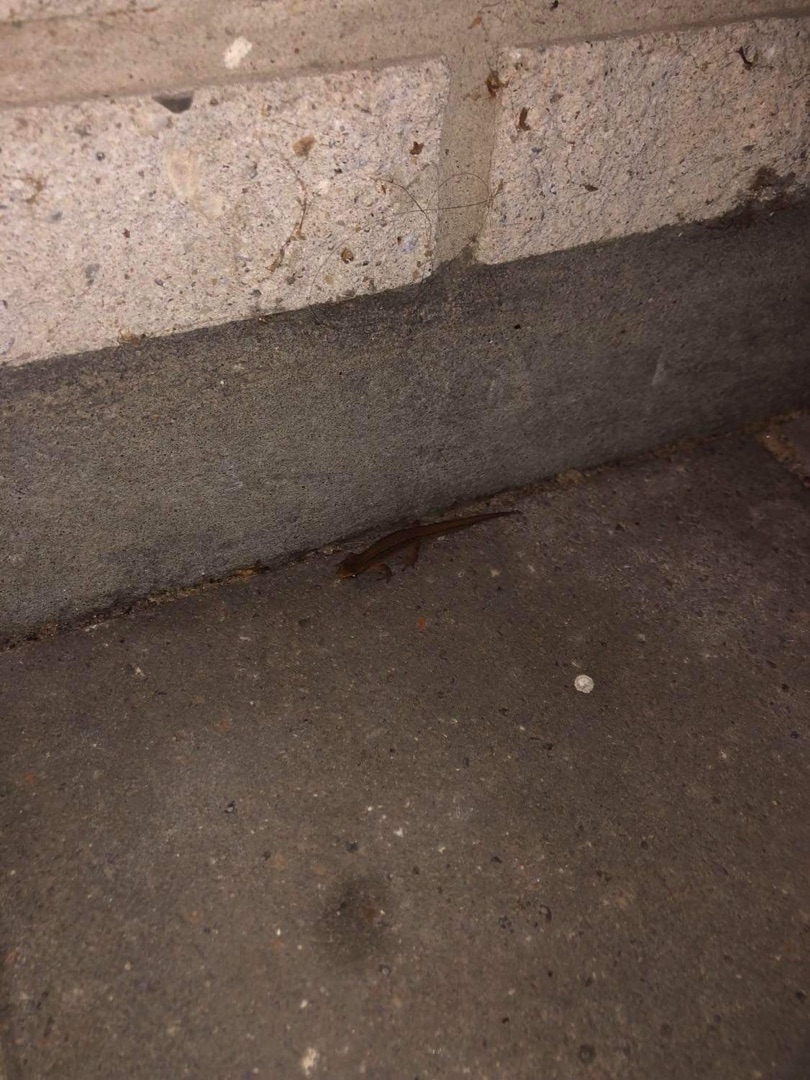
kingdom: Animalia
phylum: Chordata
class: Amphibia
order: Caudata
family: Salamandridae
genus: Lissotriton
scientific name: Lissotriton vulgaris
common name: Lille vandsalamander
